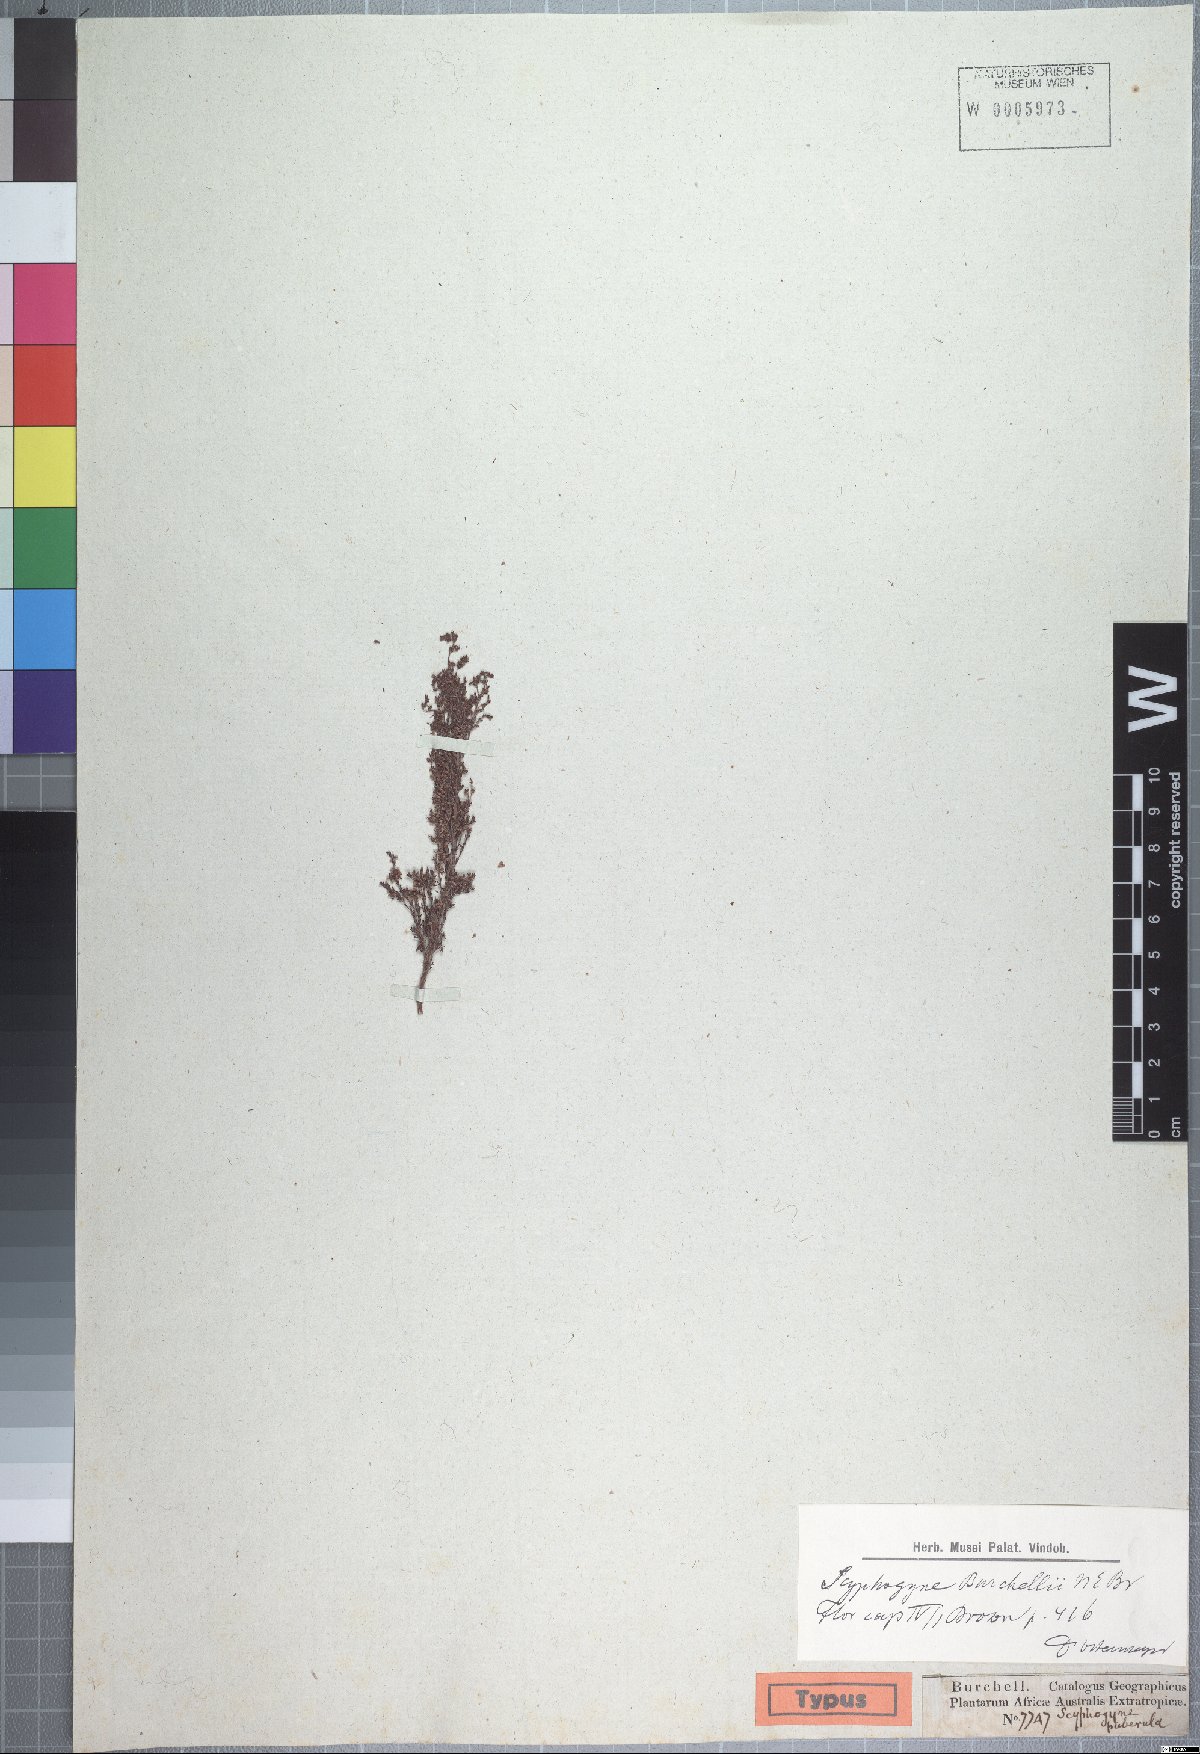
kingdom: Plantae
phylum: Tracheophyta
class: Magnoliopsida
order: Ericales
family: Ericaceae
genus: Erica
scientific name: Erica urceolata
